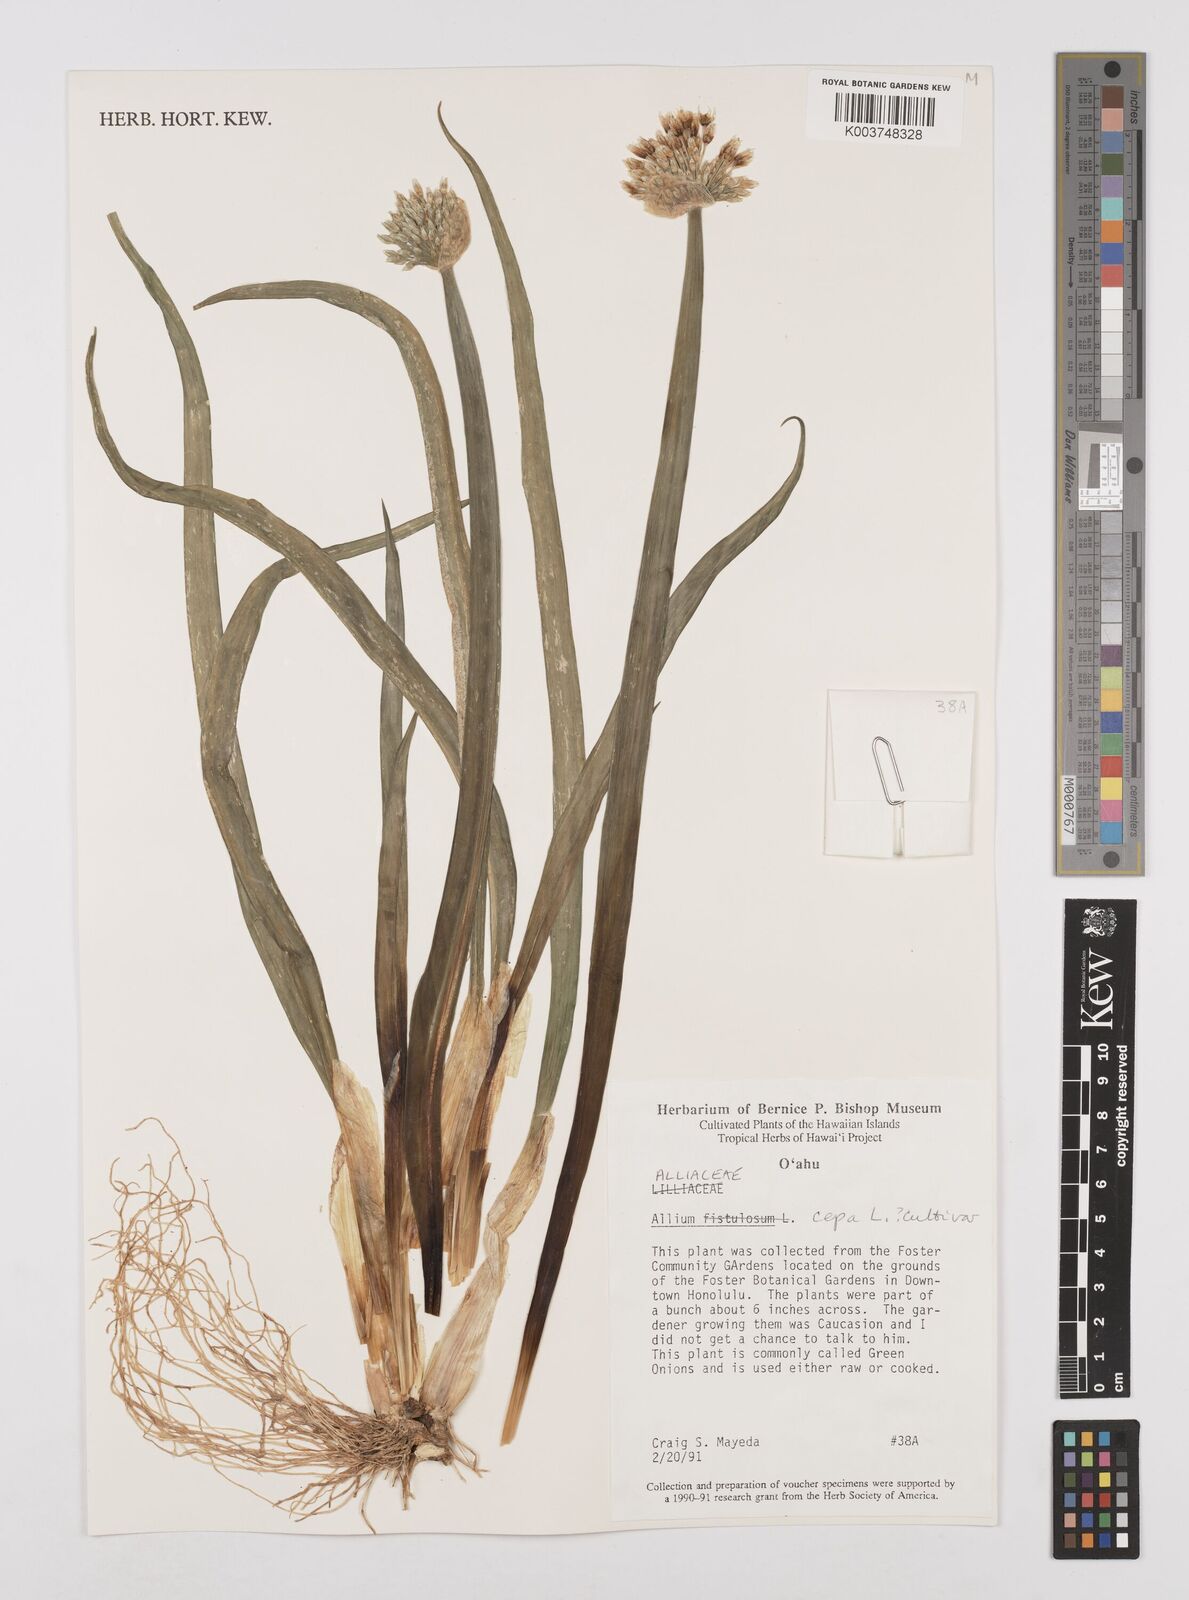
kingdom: Plantae
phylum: Tracheophyta
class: Liliopsida
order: Asparagales
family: Amaryllidaceae
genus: Allium
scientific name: Allium cepa
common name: Onion
